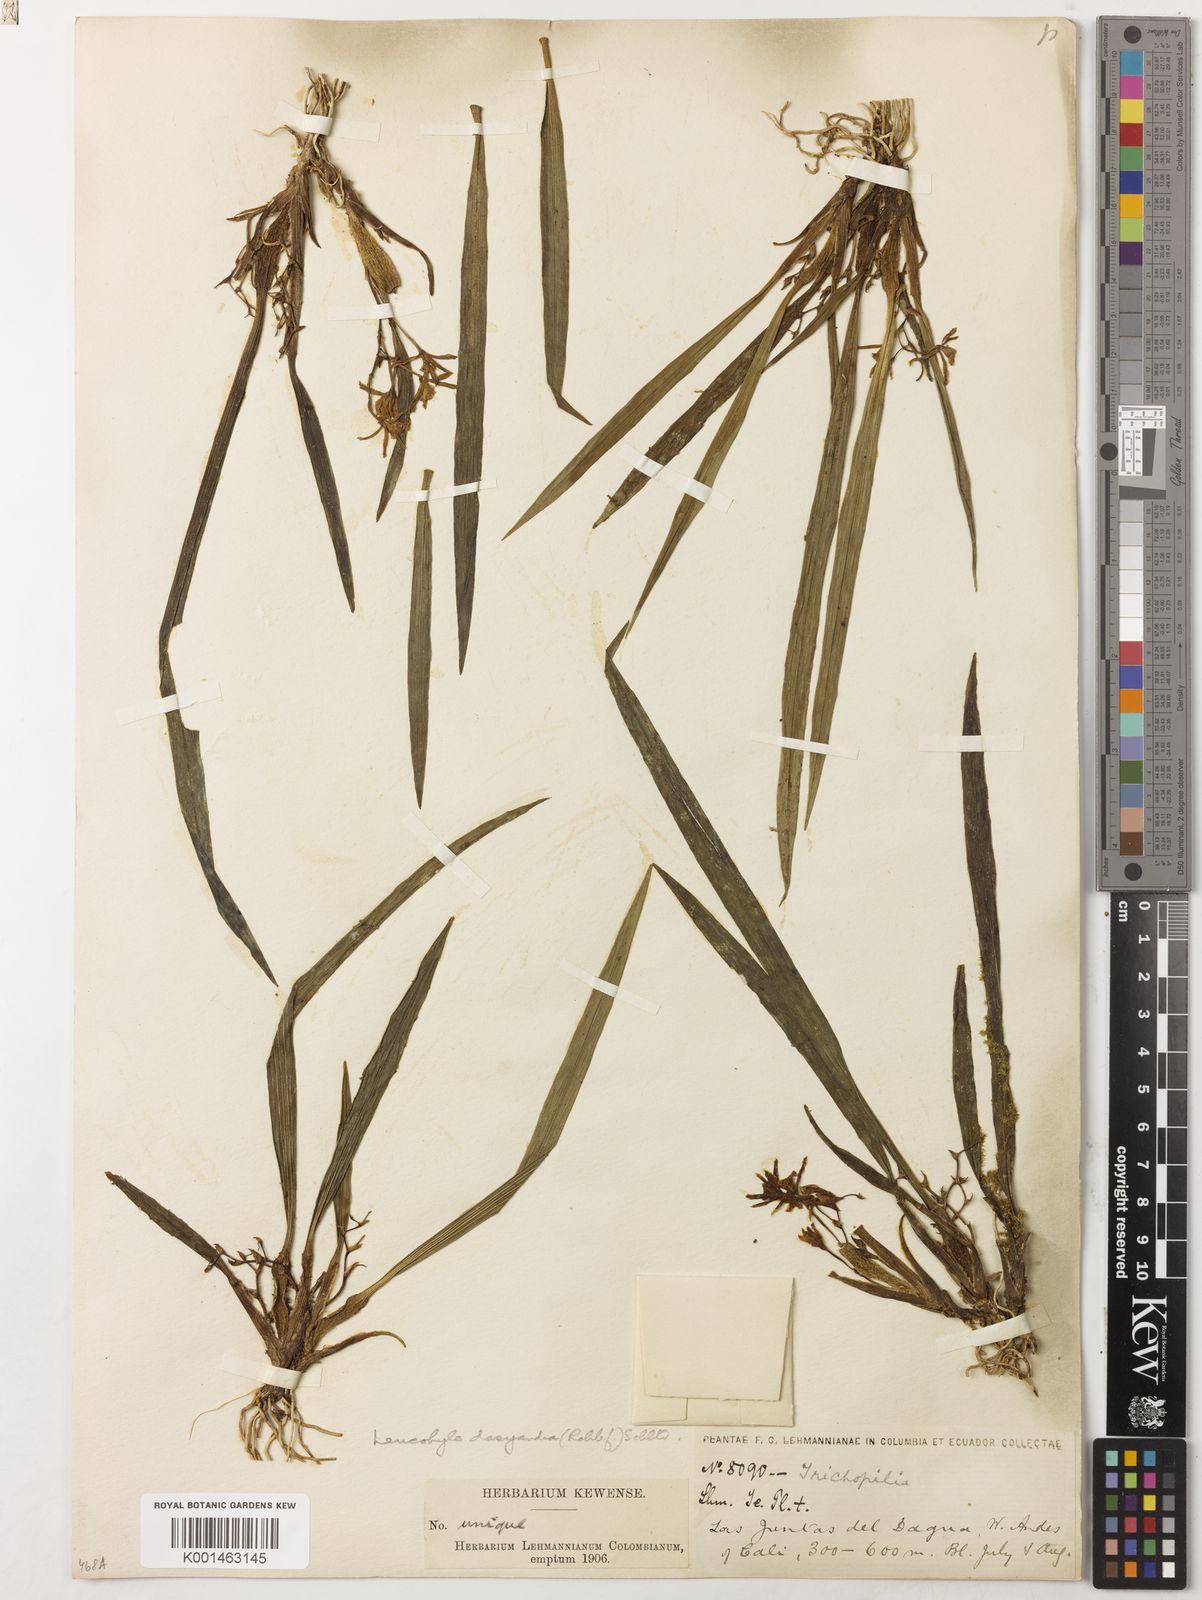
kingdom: Plantae
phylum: Tracheophyta
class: Liliopsida
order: Asparagales
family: Orchidaceae
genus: Cischweinfia
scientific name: Cischweinfia dasyandra
